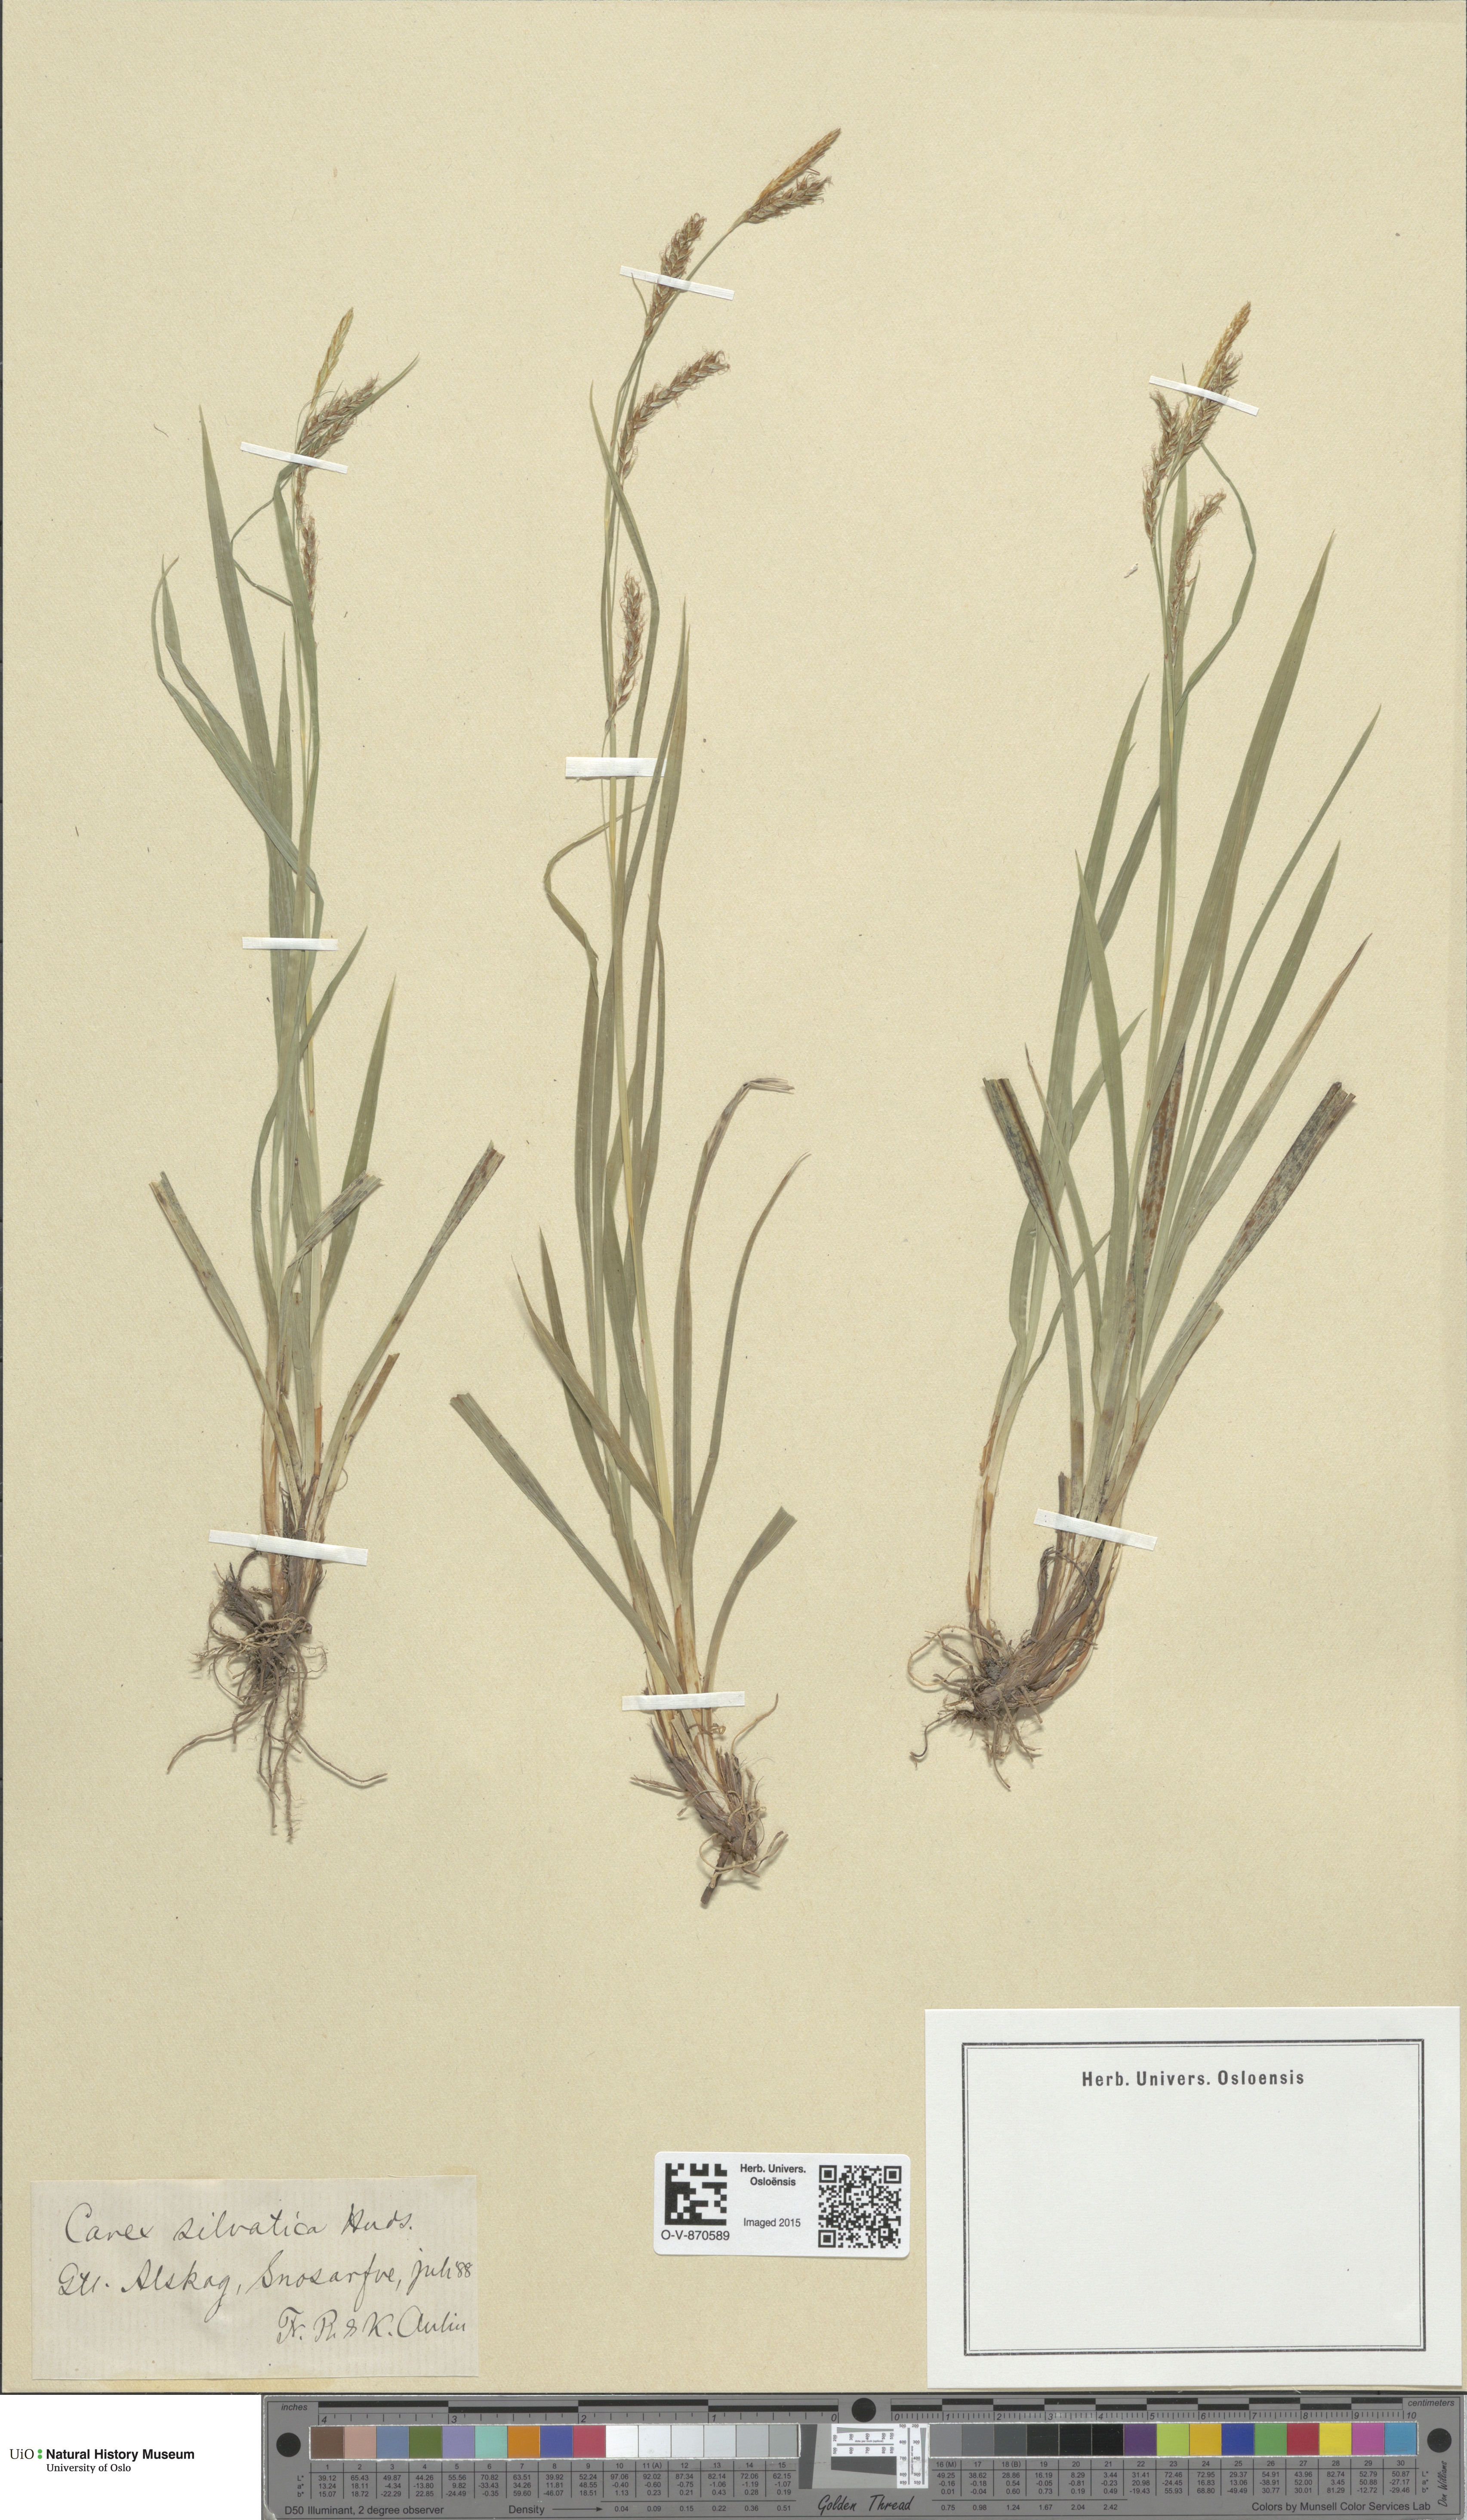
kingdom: Plantae
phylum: Tracheophyta
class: Liliopsida
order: Poales
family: Cyperaceae
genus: Carex
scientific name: Carex sylvatica
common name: Wood-sedge
